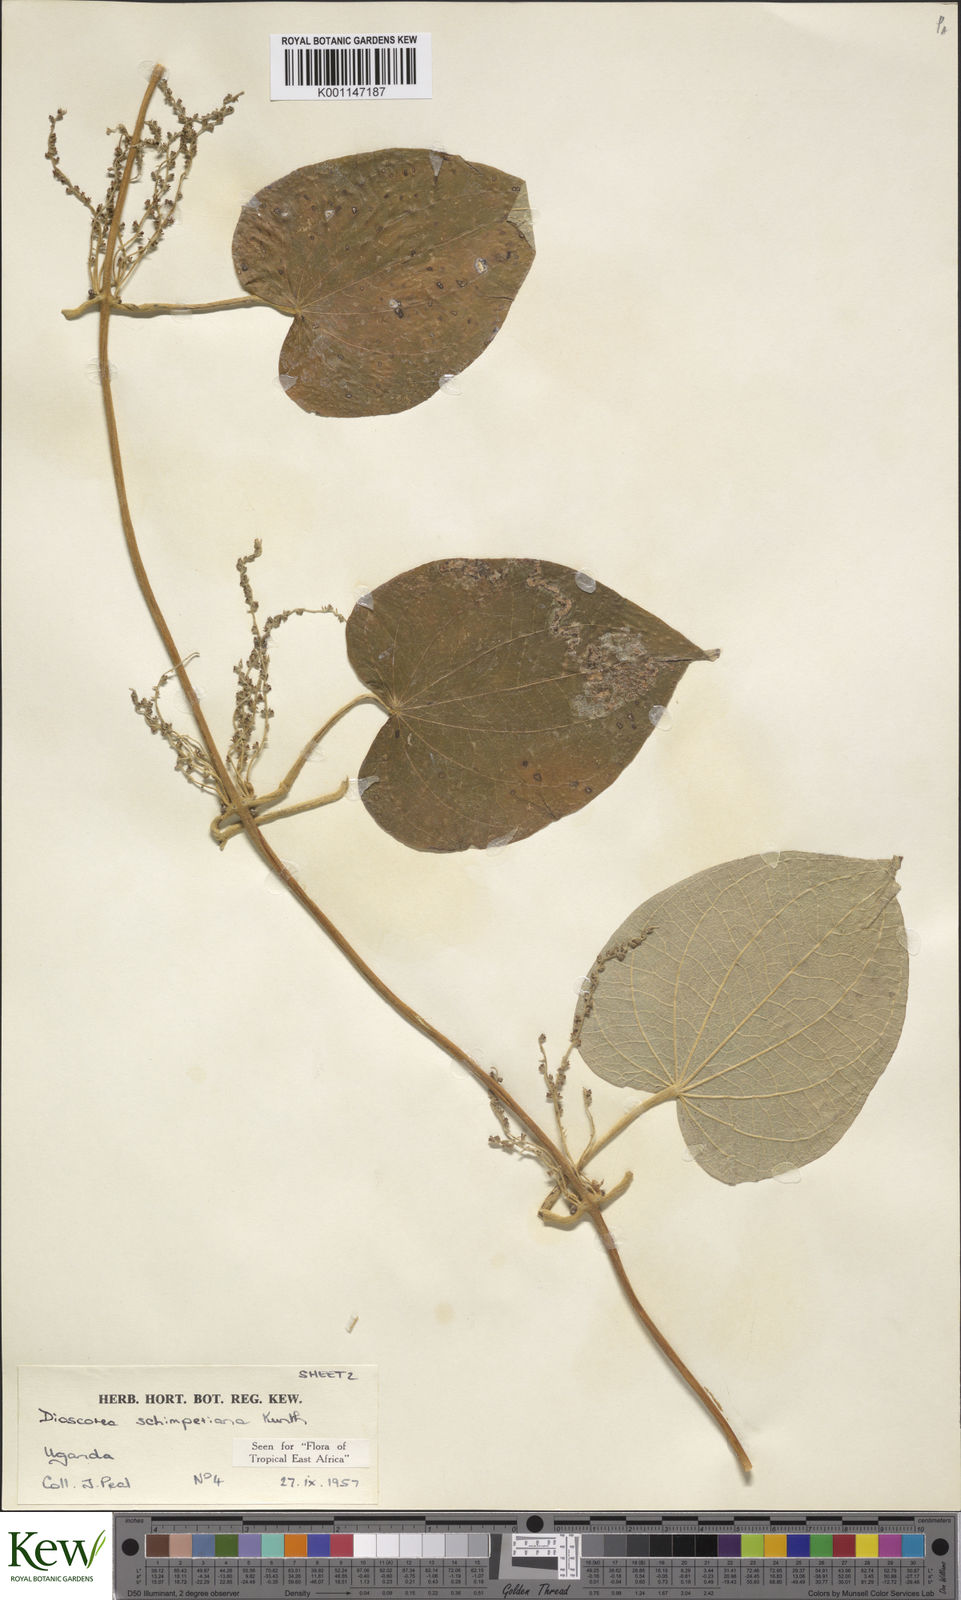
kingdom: Plantae
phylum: Tracheophyta
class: Liliopsida
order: Dioscoreales
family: Dioscoreaceae
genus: Dioscorea
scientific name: Dioscorea schimperiana
